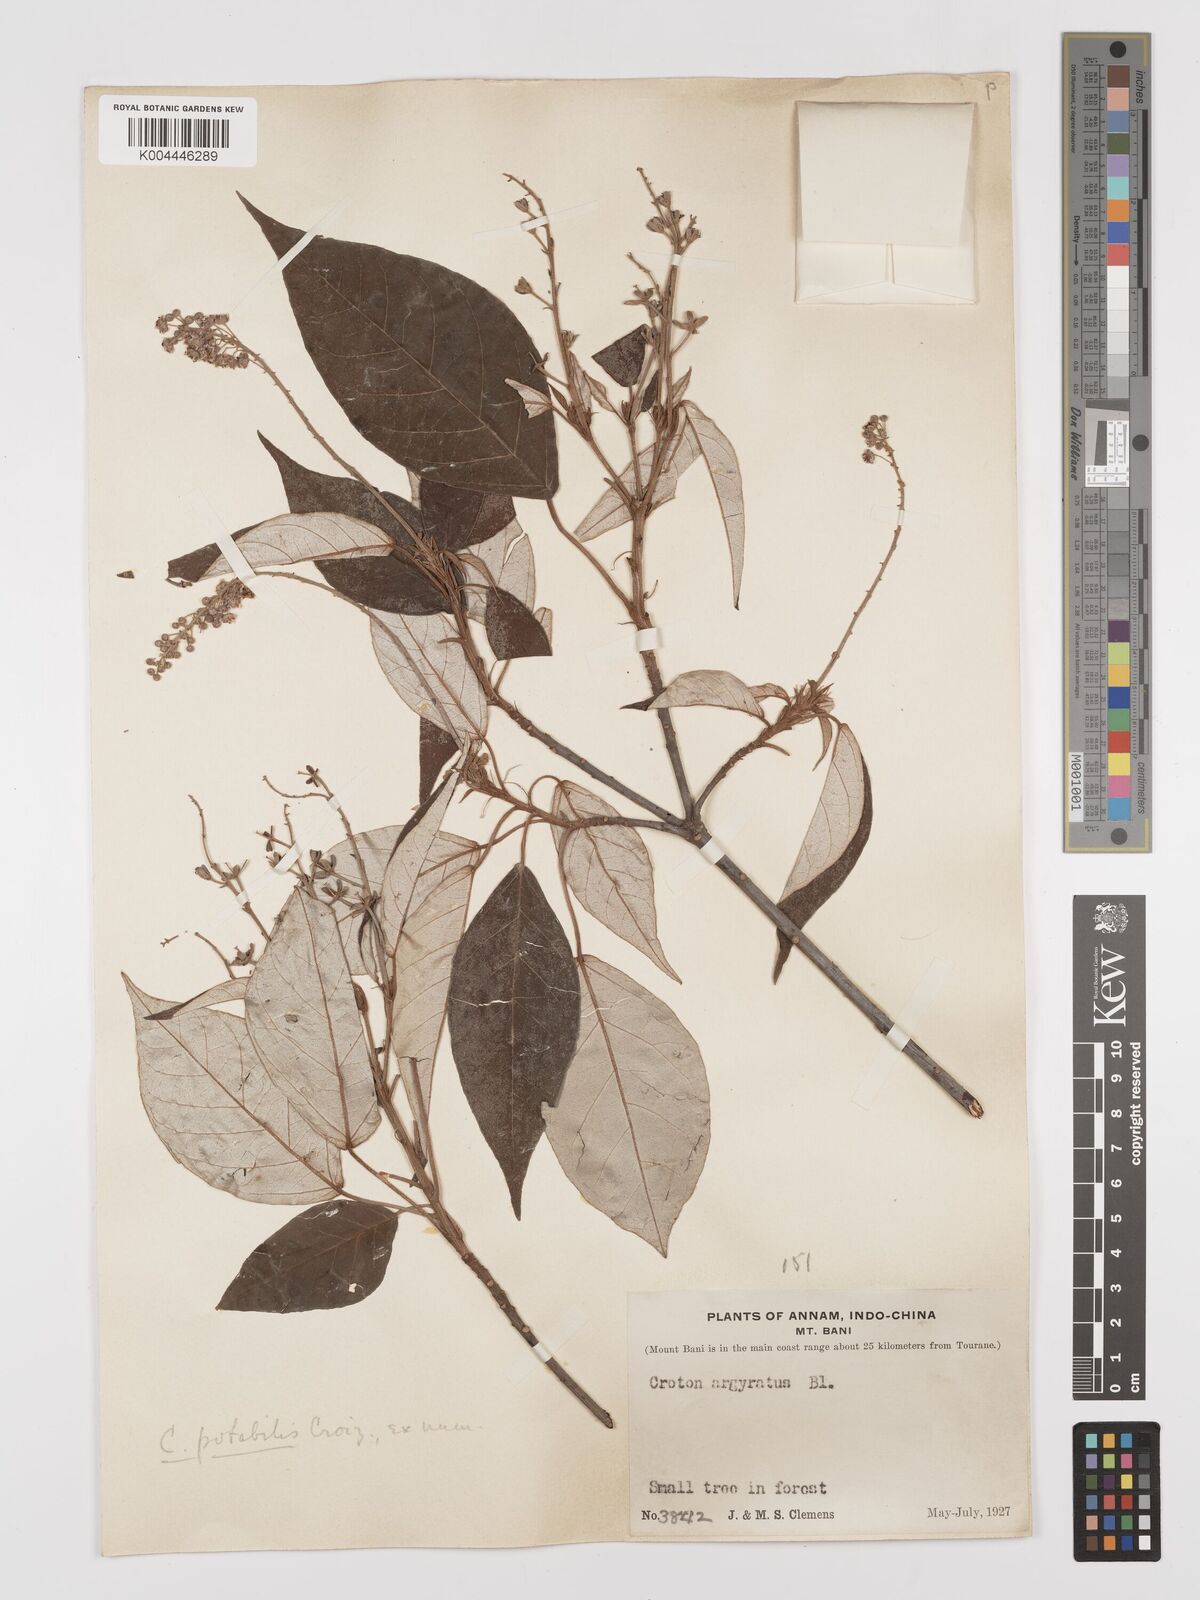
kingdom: Plantae
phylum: Tracheophyta
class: Magnoliopsida
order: Malpighiales
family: Euphorbiaceae
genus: Croton
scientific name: Croton potabilis
